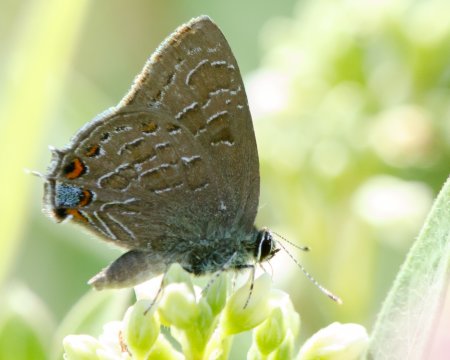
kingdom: Animalia
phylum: Arthropoda
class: Insecta
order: Lepidoptera
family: Lycaenidae
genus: Satyrium
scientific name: Satyrium liparops
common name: Striped Hairstreak
